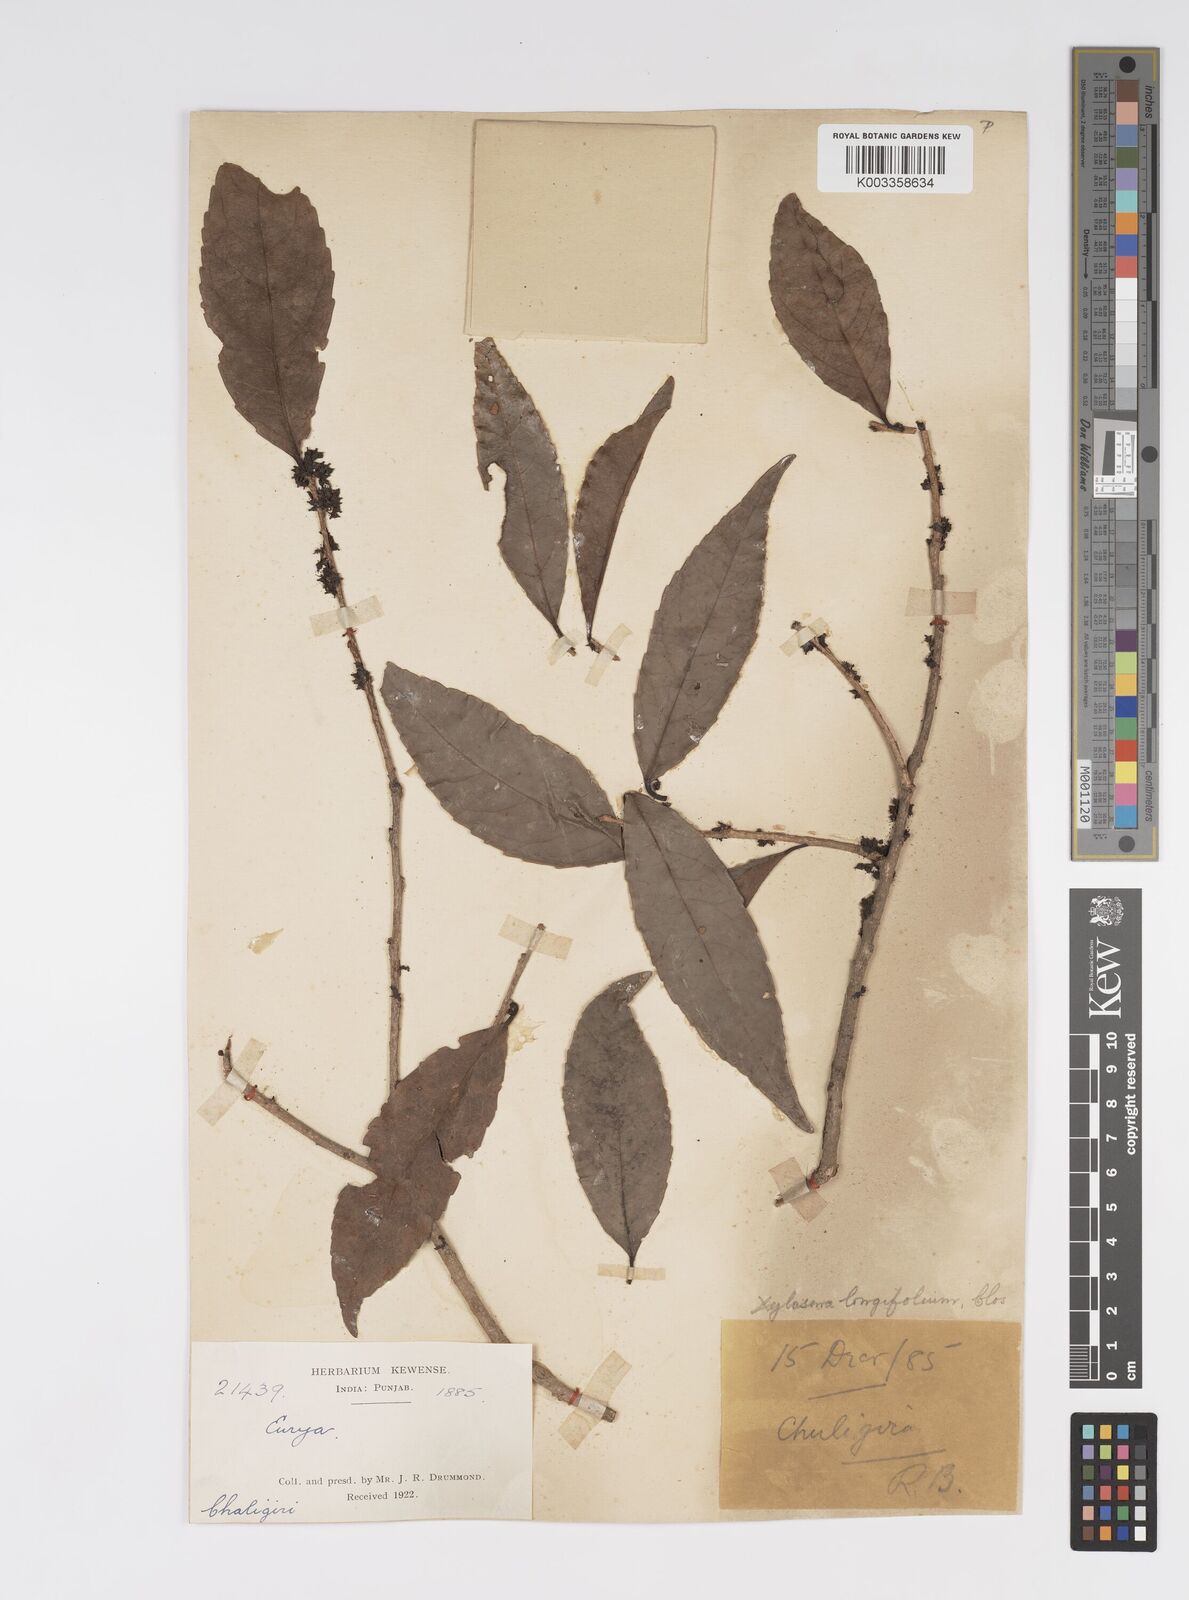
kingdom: Plantae
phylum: Tracheophyta
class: Magnoliopsida
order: Malpighiales
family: Salicaceae
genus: Xylosma
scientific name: Xylosma longifolia
